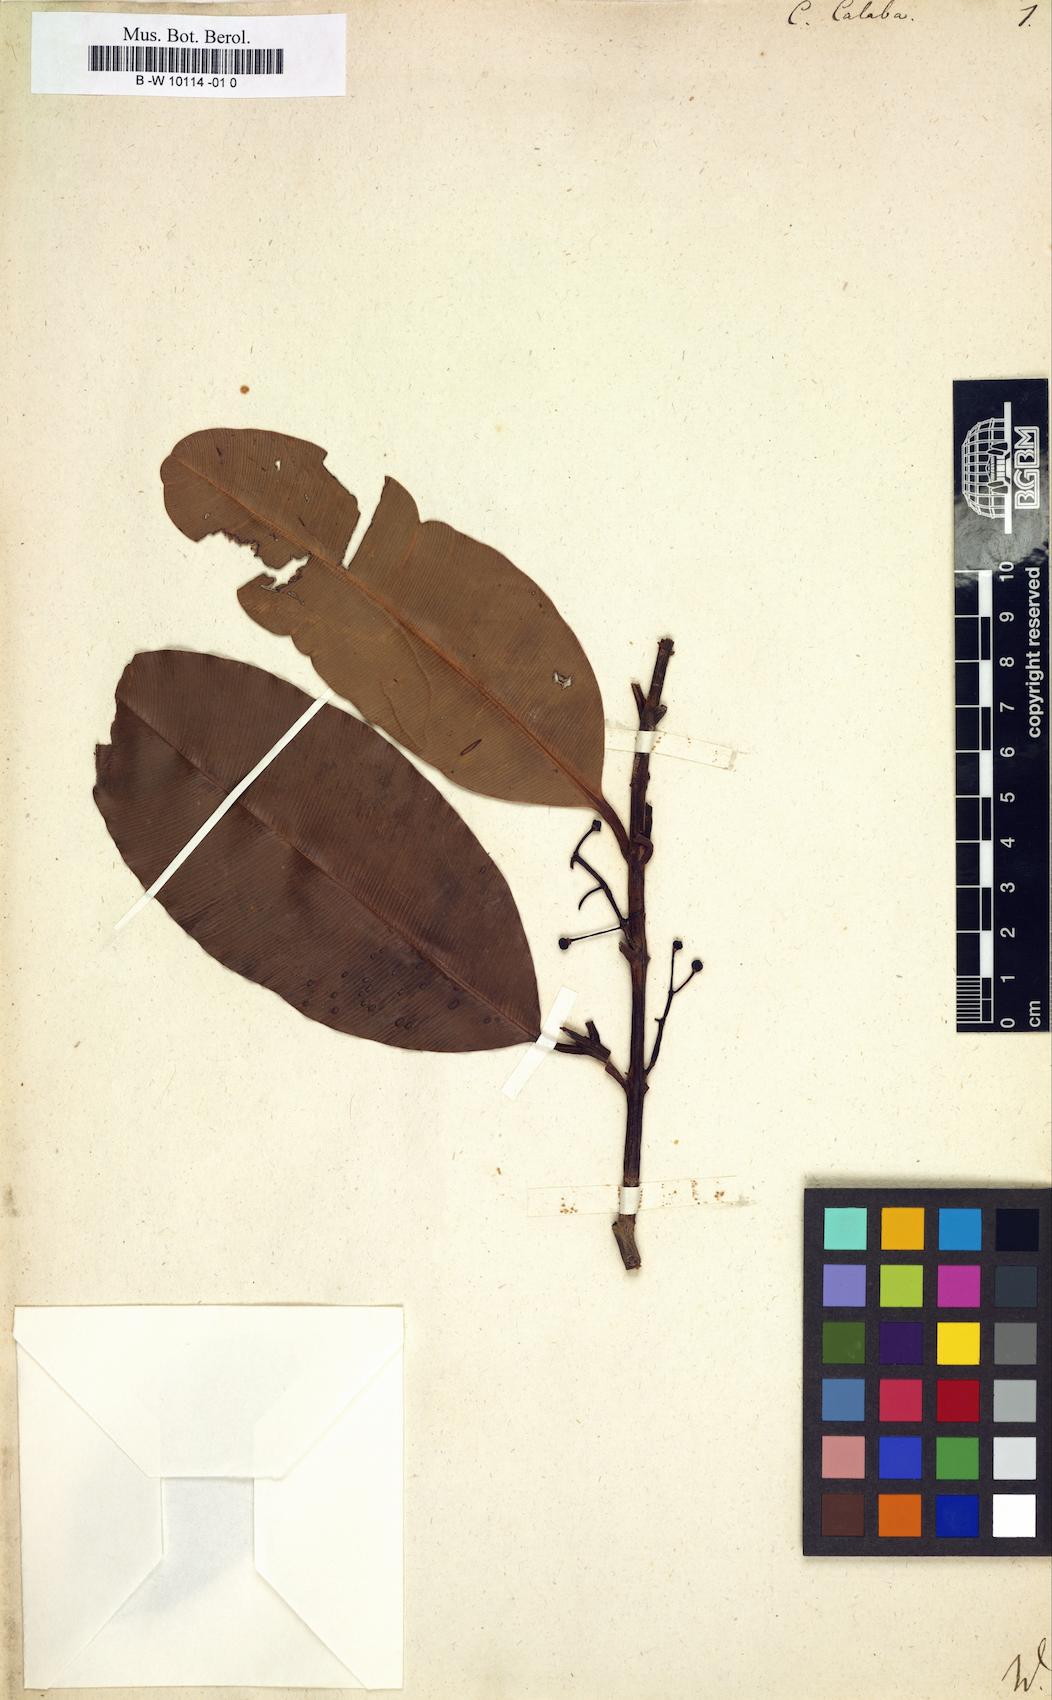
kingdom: Plantae
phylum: Tracheophyta
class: Magnoliopsida
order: Malpighiales
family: Calophyllaceae
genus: Calophyllum
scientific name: Calophyllum calaba
